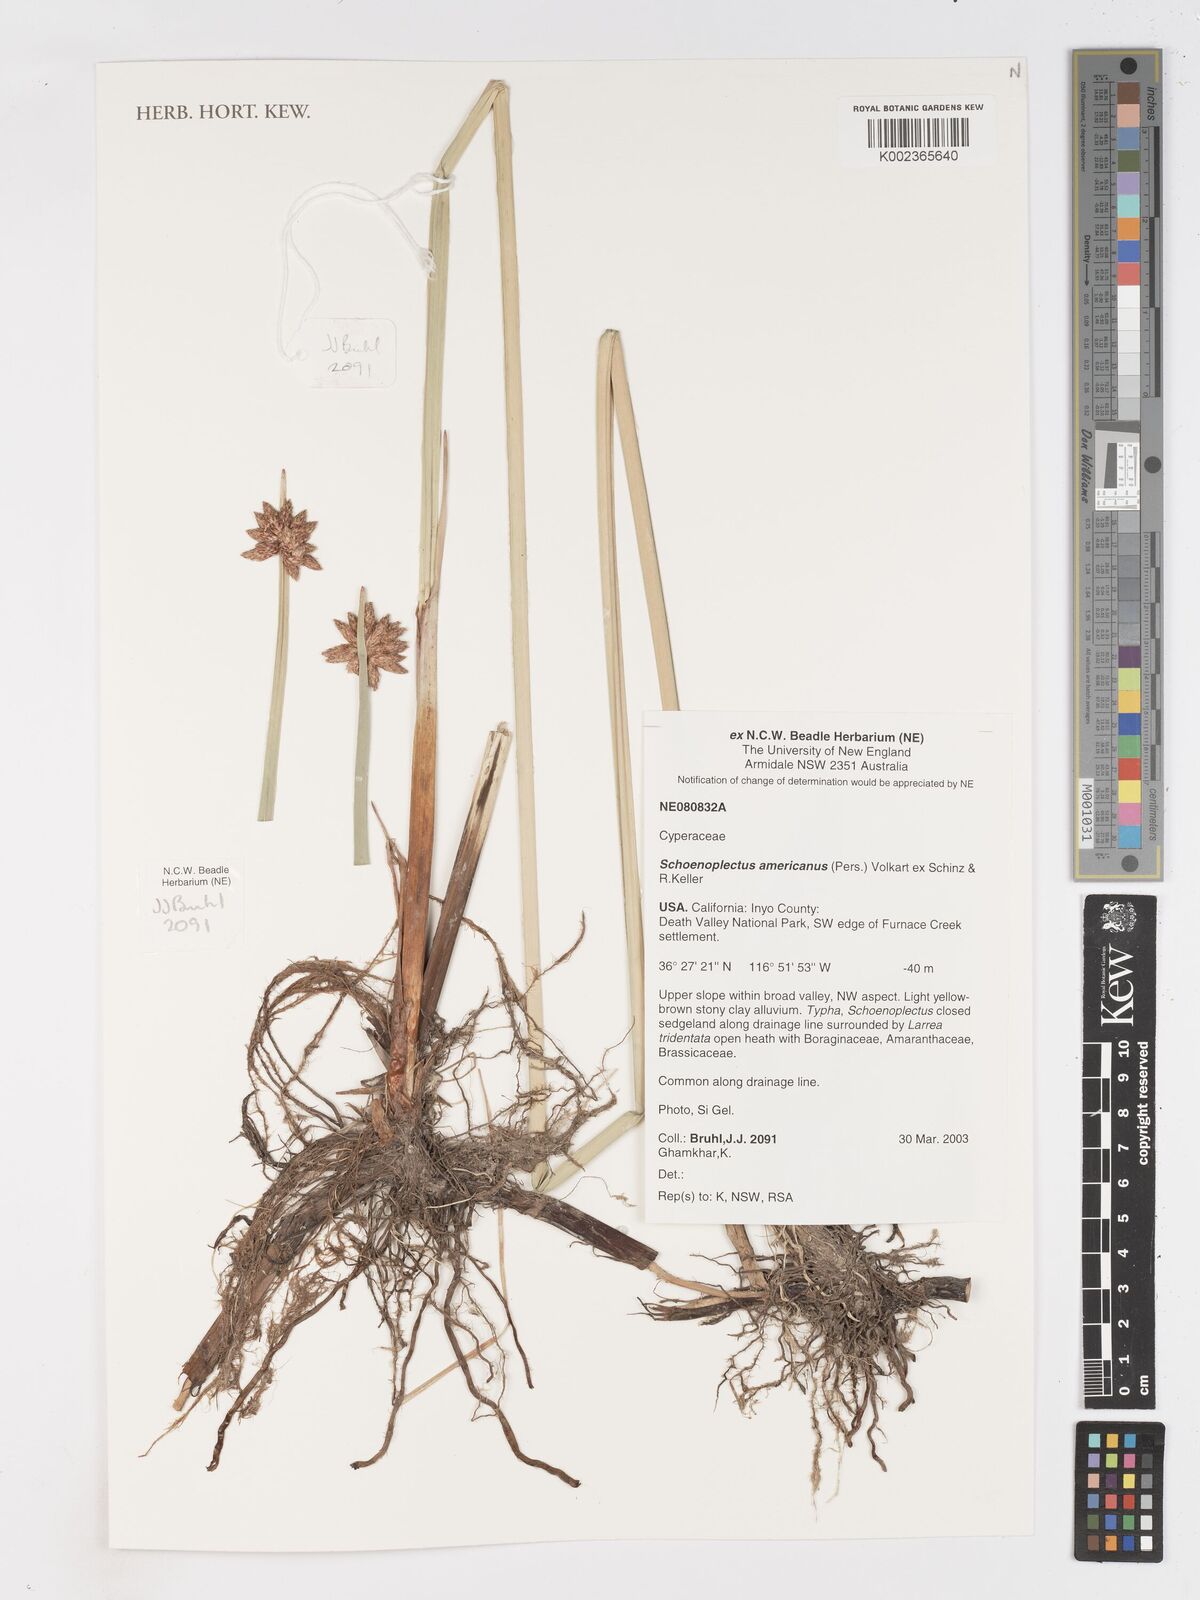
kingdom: Plantae
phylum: Tracheophyta
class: Liliopsida
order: Poales
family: Cyperaceae
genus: Schoenoplectus
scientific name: Schoenoplectus americanus
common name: American three-square bulrush
